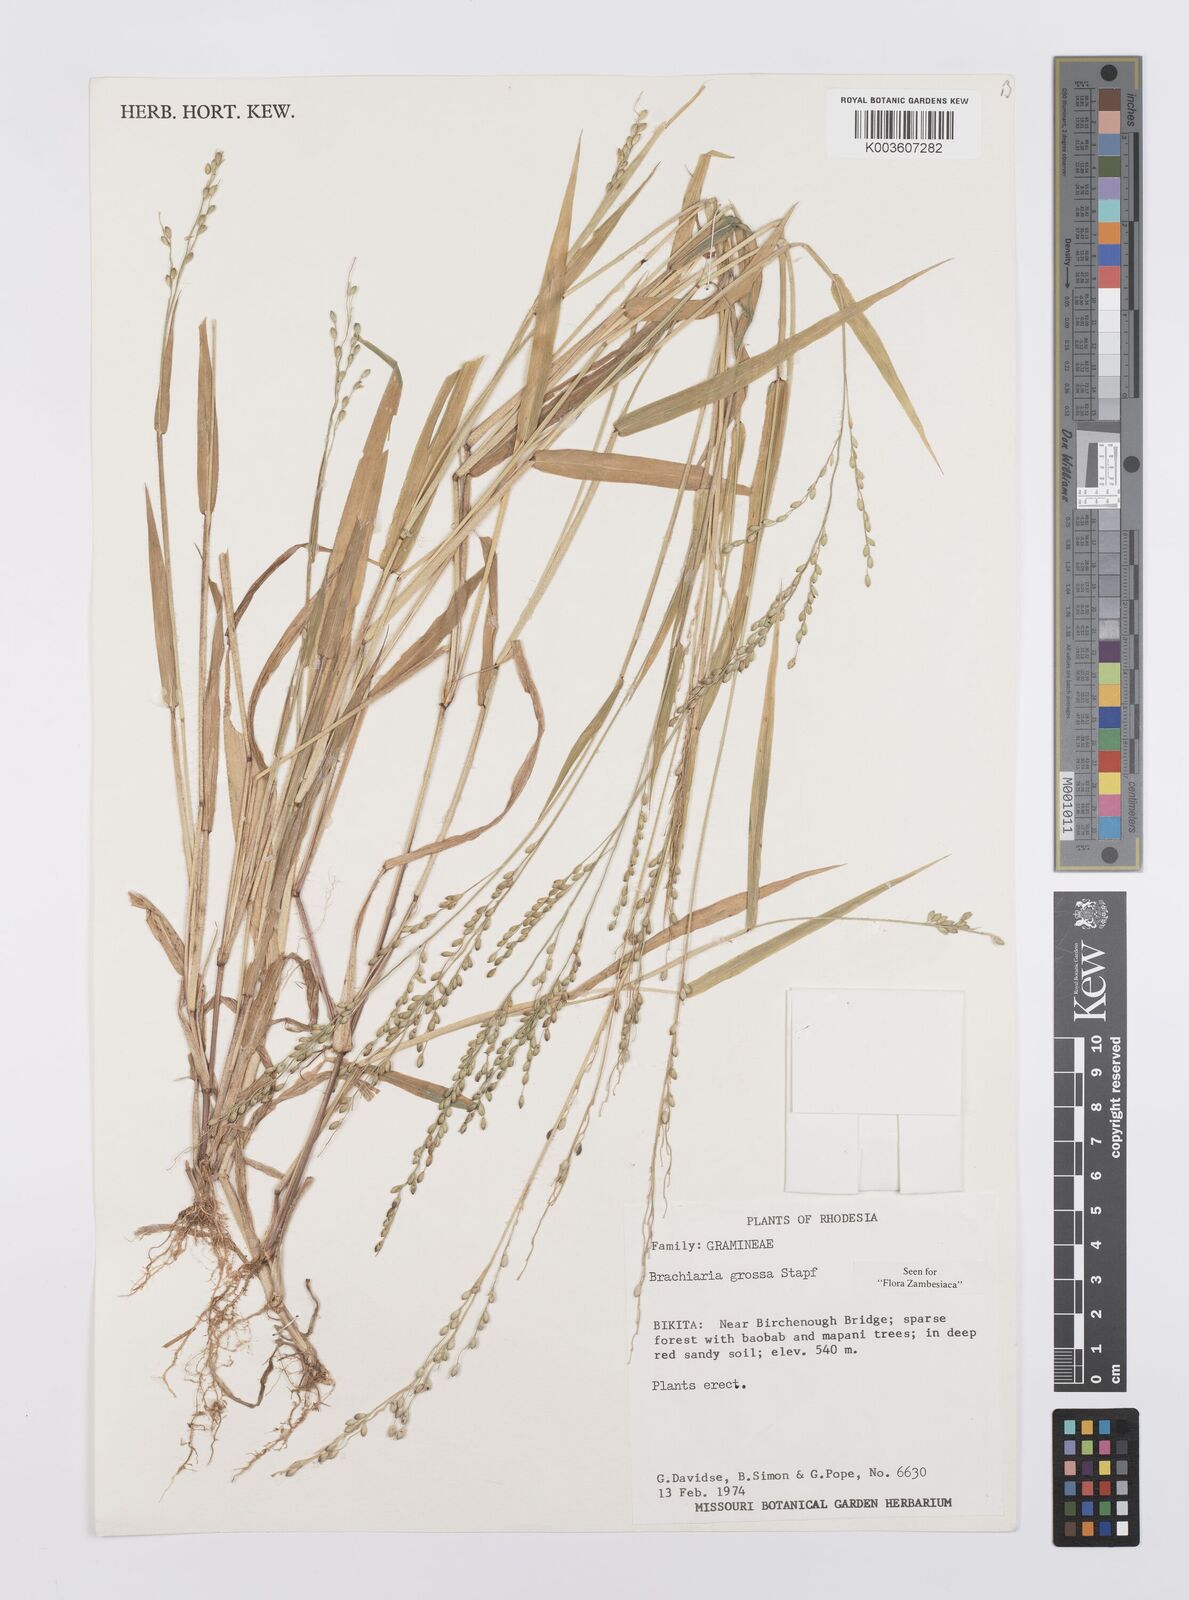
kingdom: Plantae
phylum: Tracheophyta
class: Liliopsida
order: Poales
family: Poaceae
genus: Urochloa
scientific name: Urochloa Brachiaria grossa
